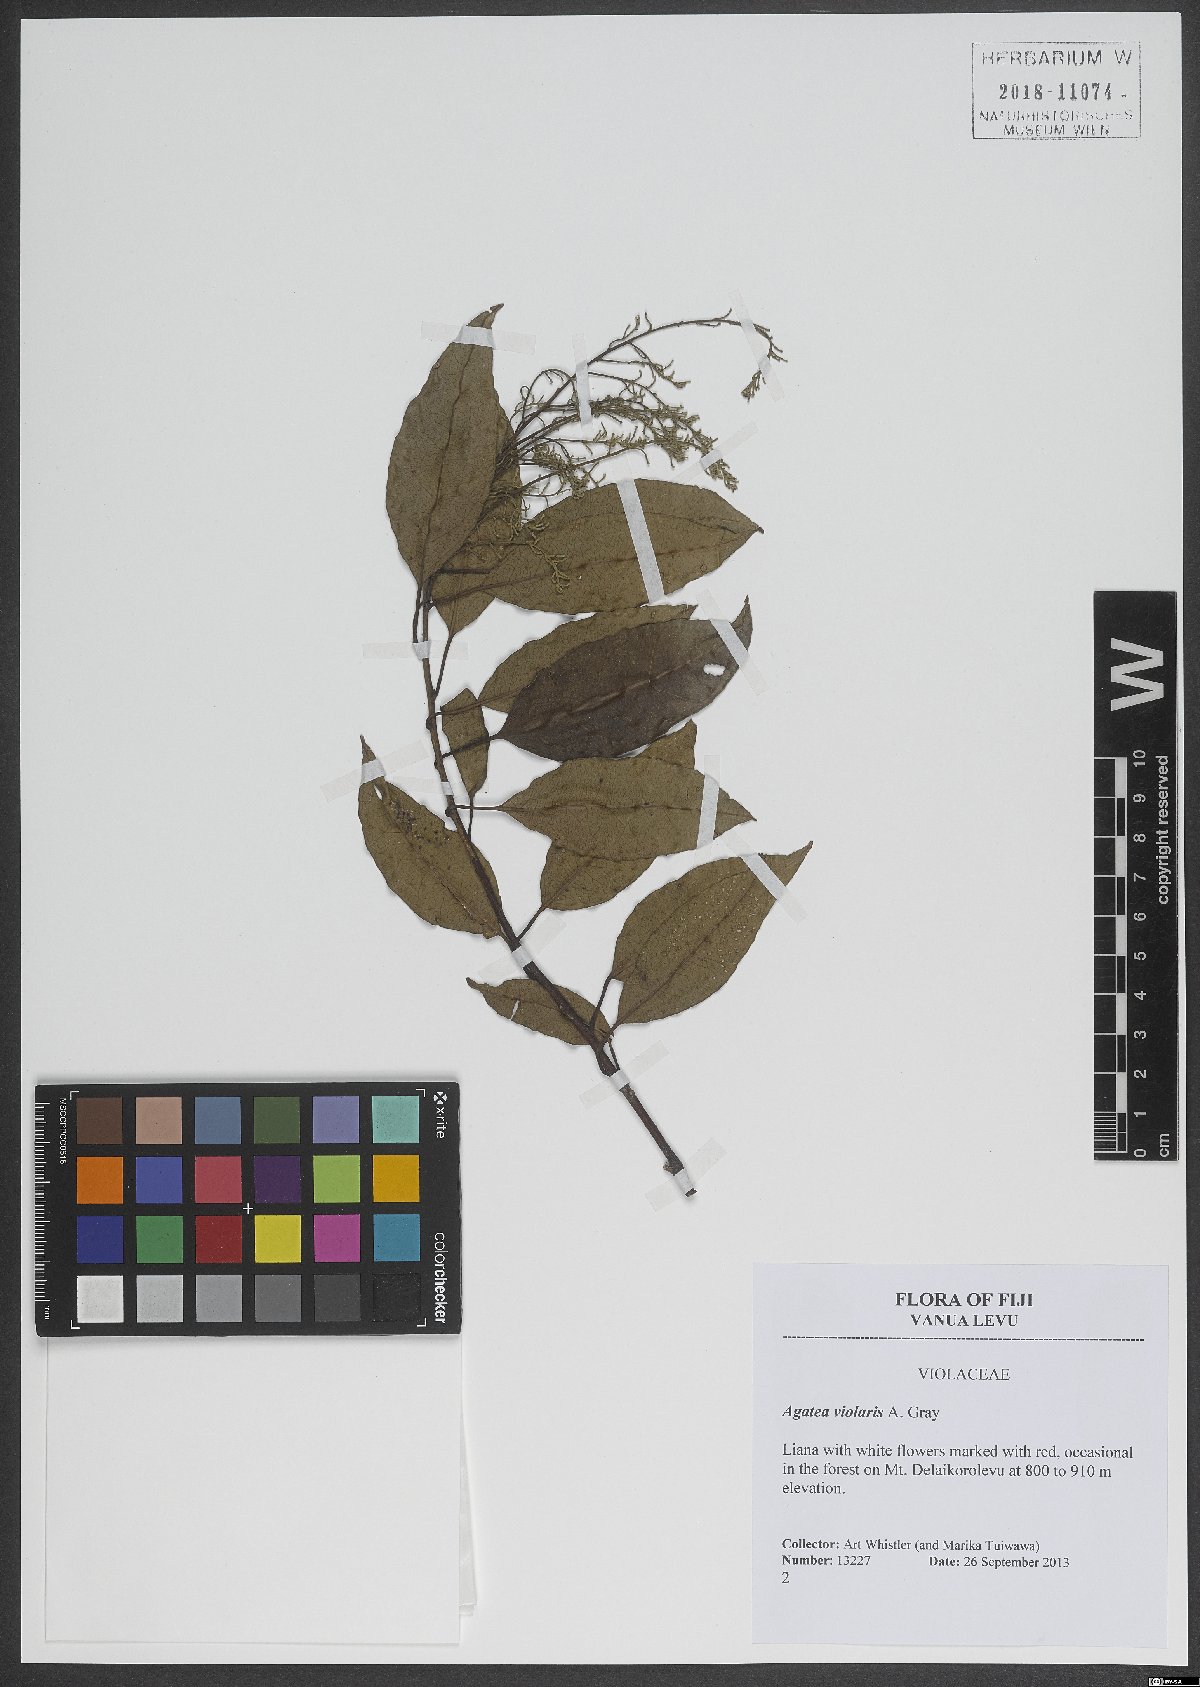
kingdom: Plantae
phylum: Tracheophyta
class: Magnoliopsida
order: Malpighiales
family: Violaceae
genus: Agatea
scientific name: Agatea violaris
